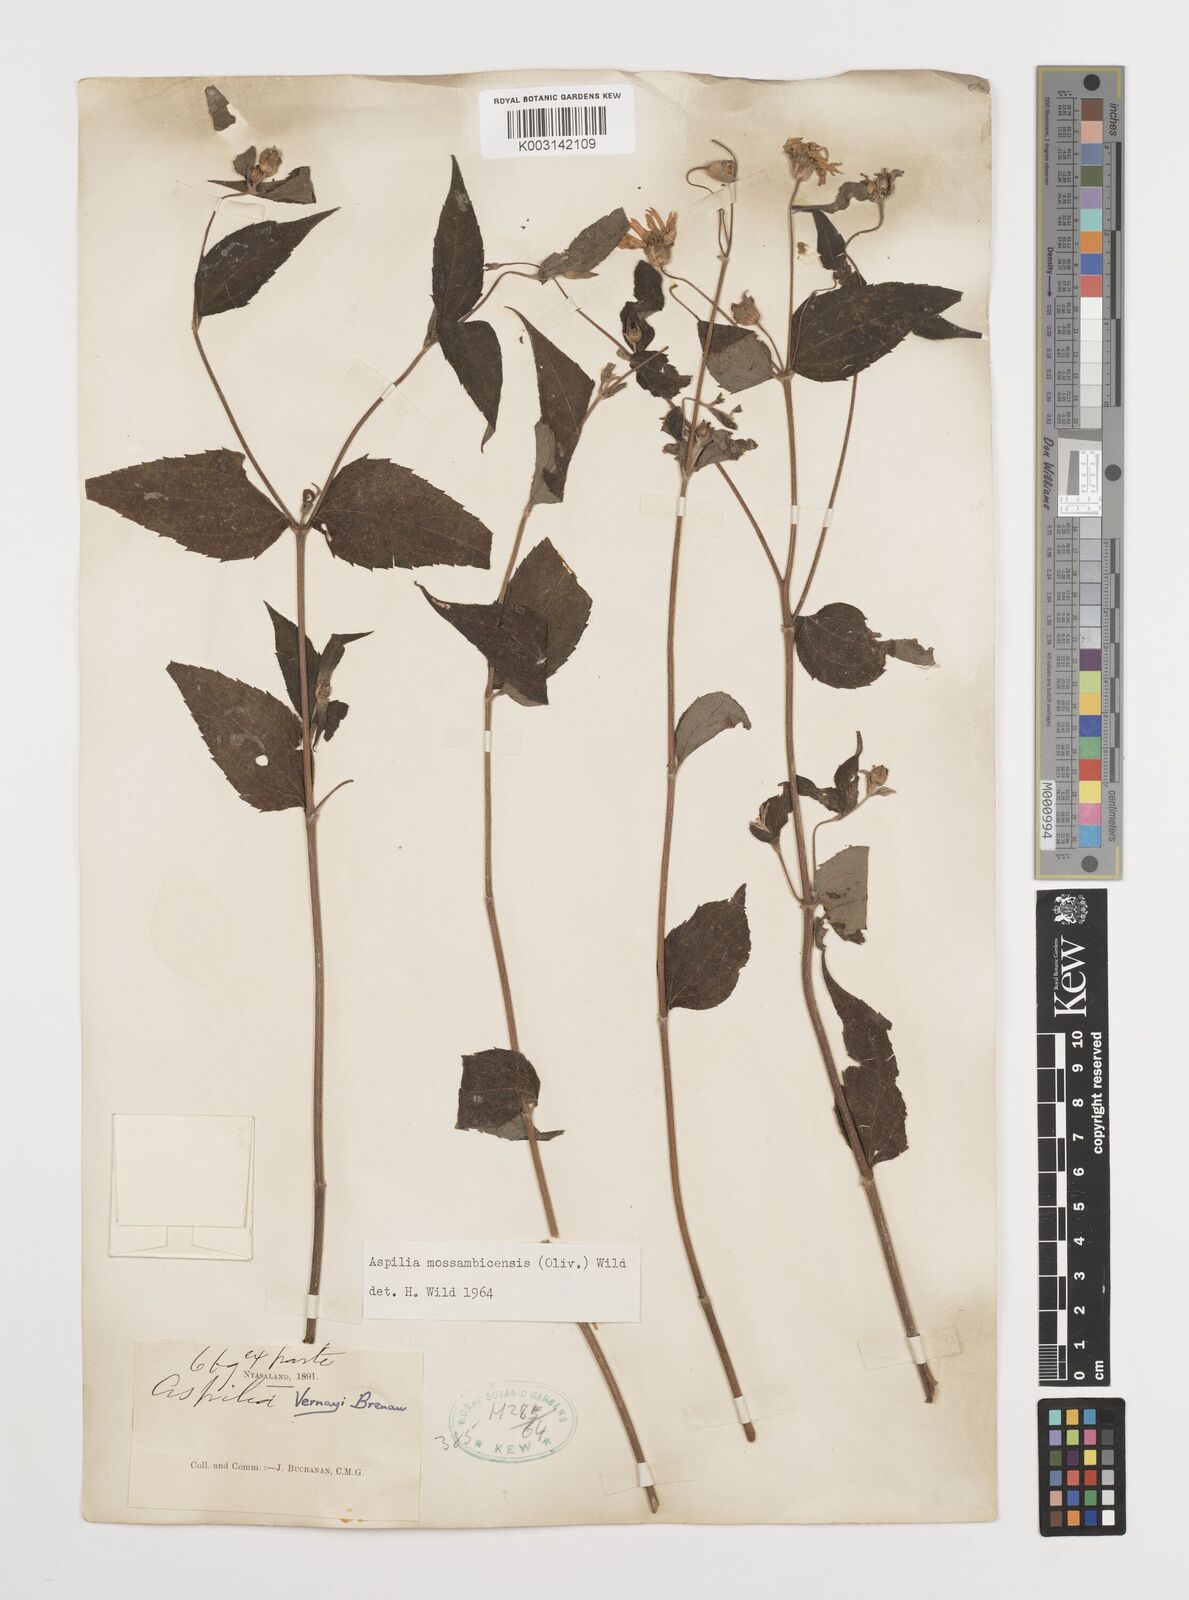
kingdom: Plantae
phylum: Tracheophyta
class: Magnoliopsida
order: Asterales
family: Asteraceae
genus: Aspilia
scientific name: Aspilia mossambicensis
